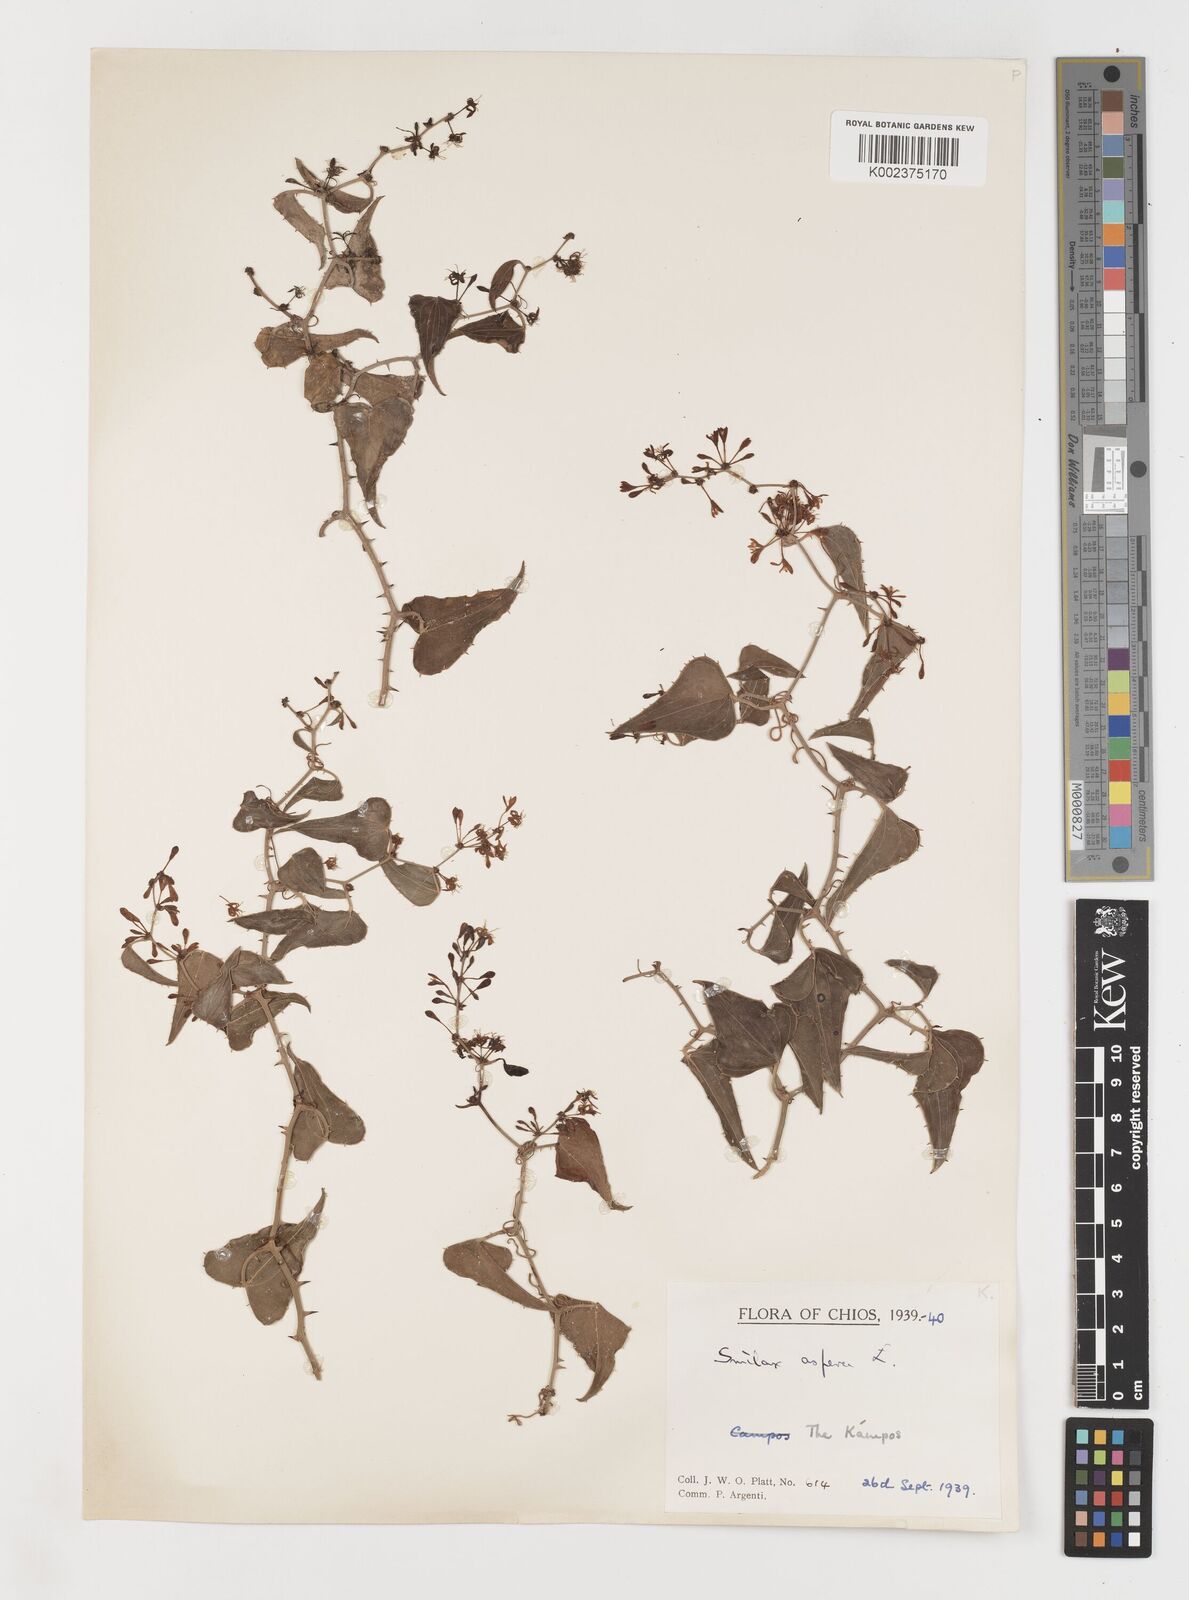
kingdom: Plantae
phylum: Tracheophyta
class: Liliopsida
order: Liliales
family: Smilacaceae
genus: Smilax
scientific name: Smilax aspera
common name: Common smilax
